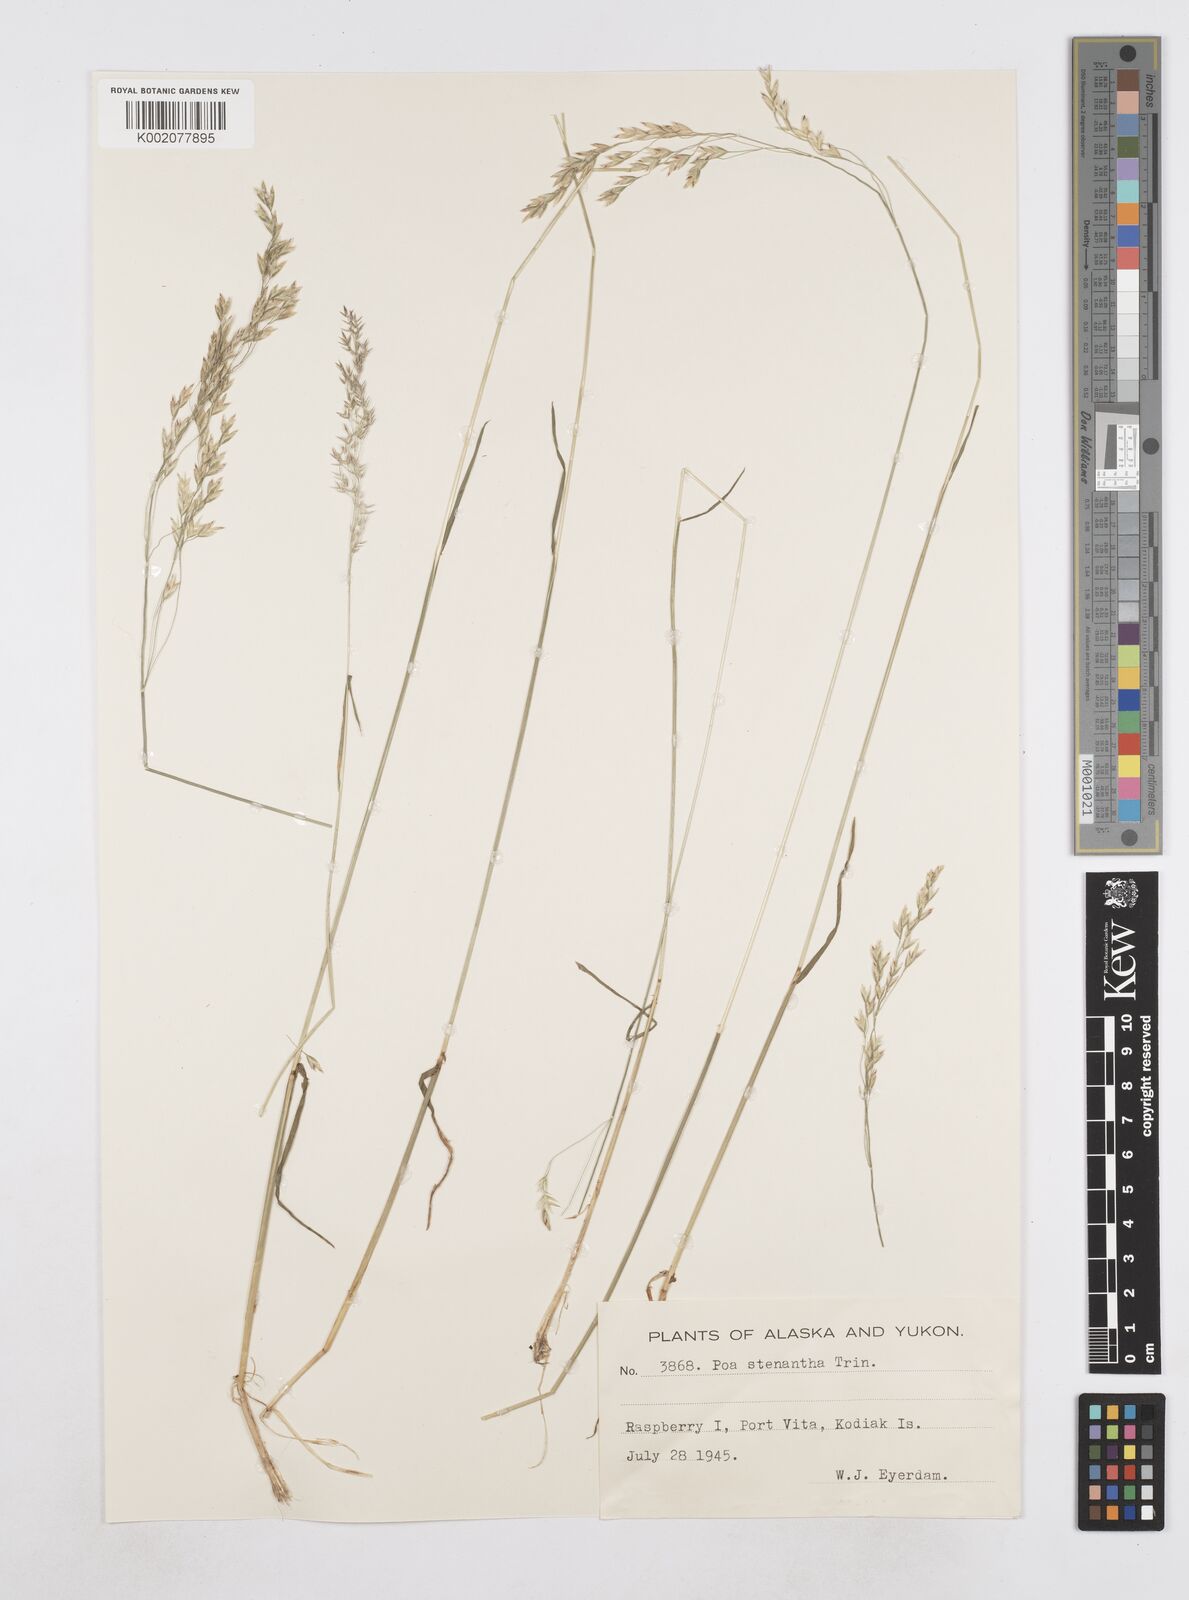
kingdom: Plantae
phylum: Tracheophyta
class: Liliopsida
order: Poales
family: Poaceae
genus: Poa
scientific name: Poa stenantha
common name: Narrow-flowered bluegrass
